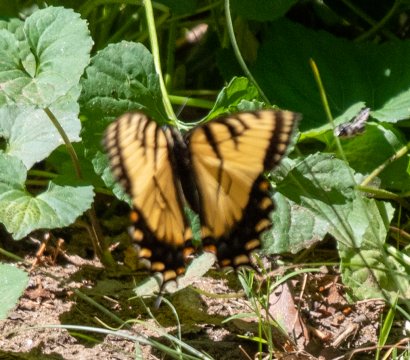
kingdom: Animalia
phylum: Arthropoda
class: Insecta
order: Lepidoptera
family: Papilionidae
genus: Pterourus
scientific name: Pterourus appalachiensis
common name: Appalachian Tiger Swallowtail
